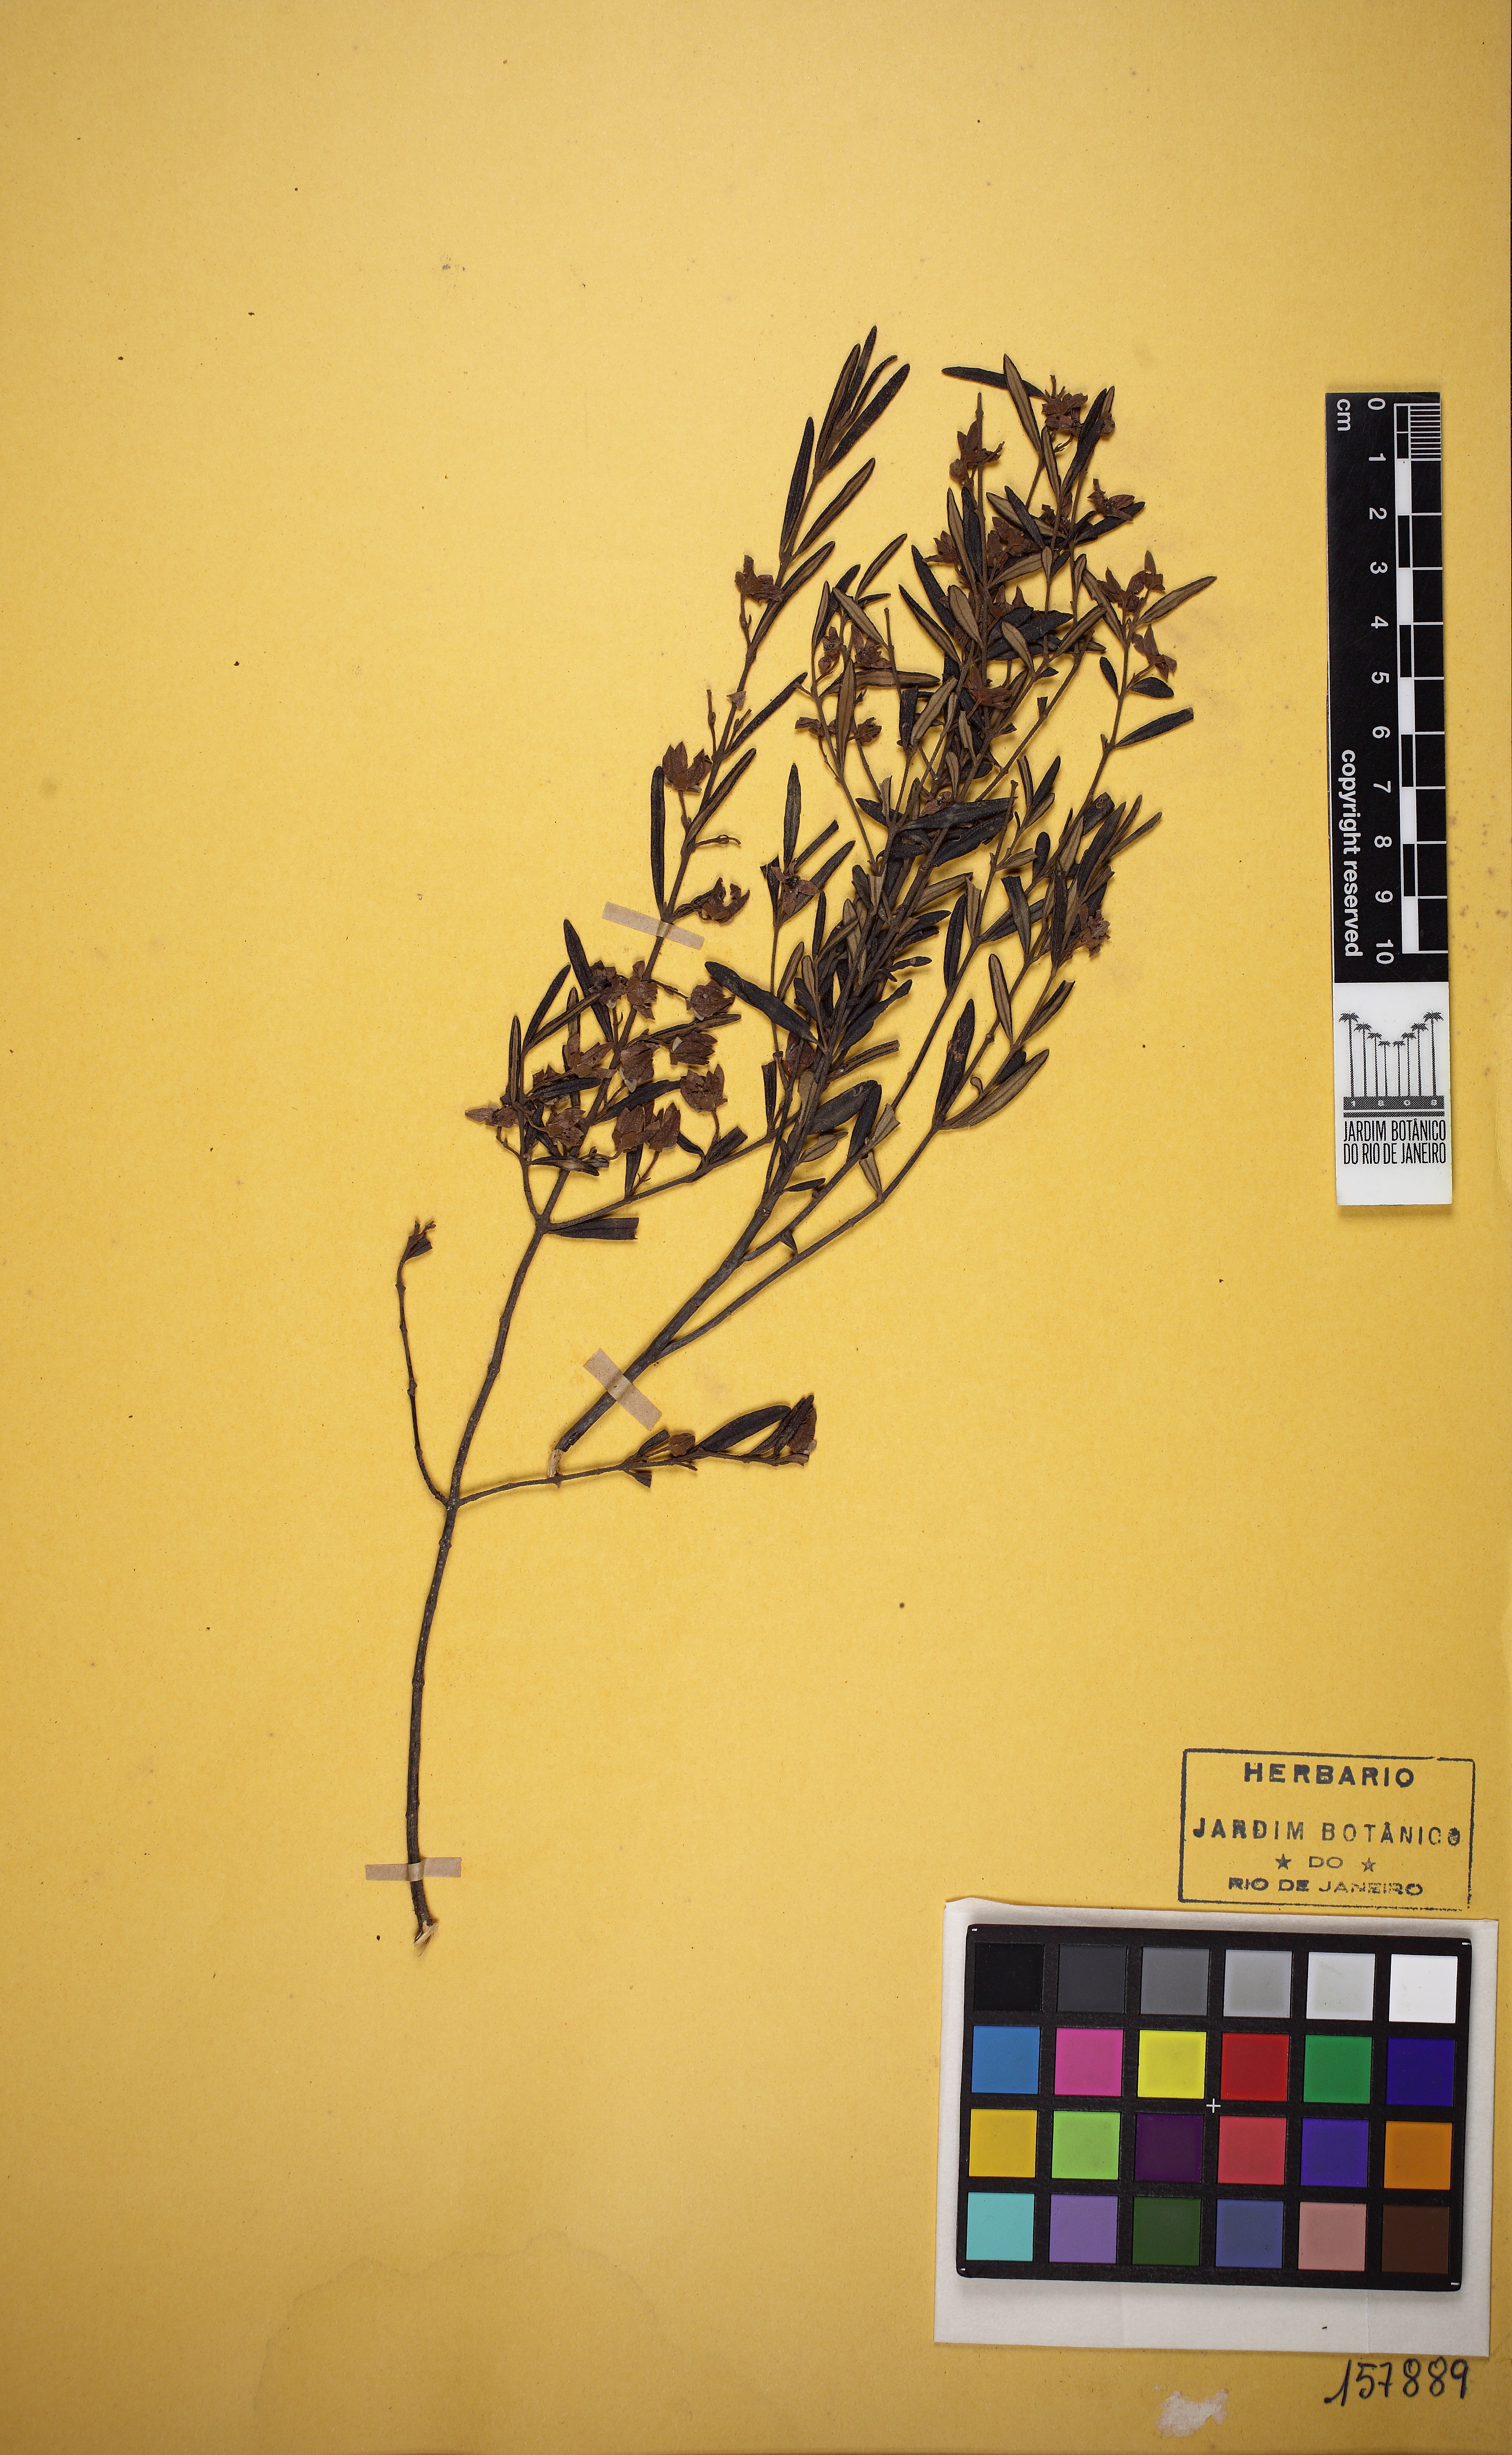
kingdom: Plantae
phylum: Tracheophyta
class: Magnoliopsida
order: Sapindales
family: Rutaceae
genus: Boronia
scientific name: Boronia ledifolia
